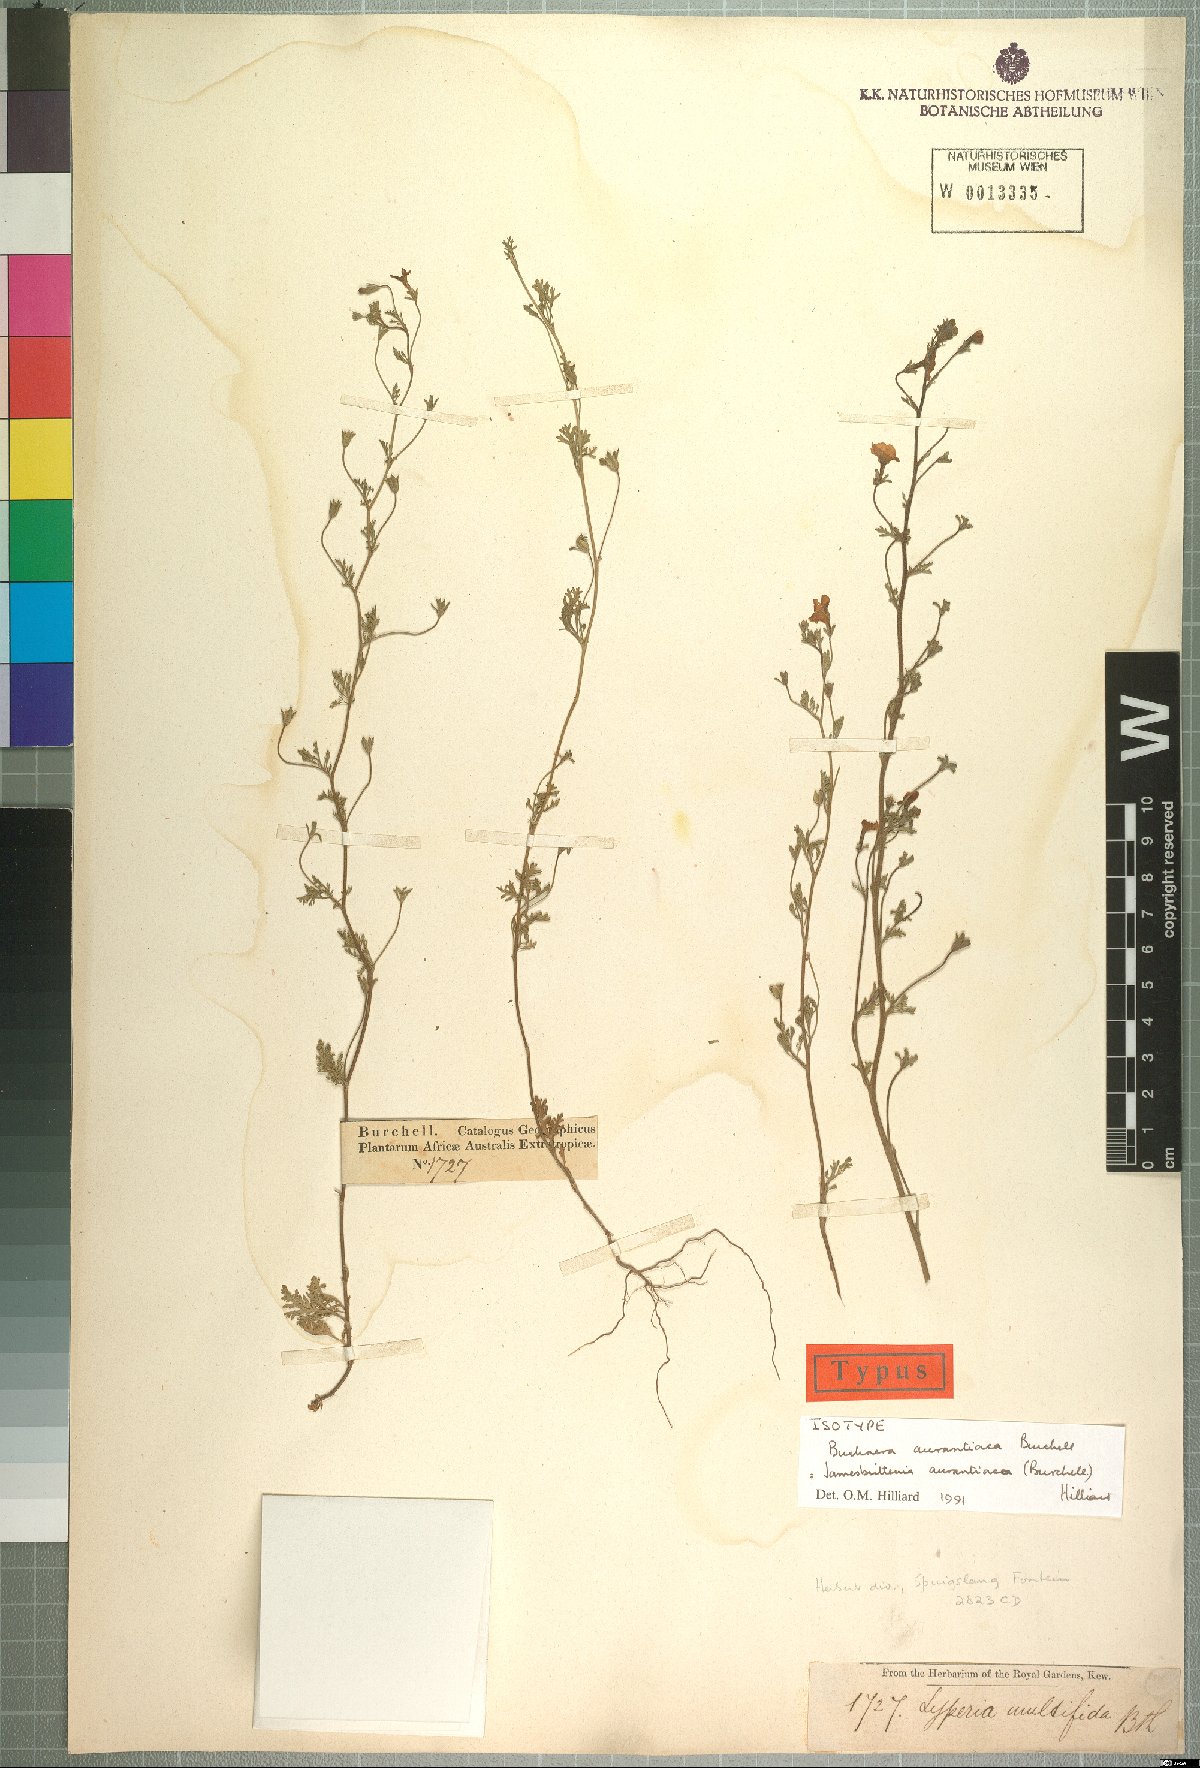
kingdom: Plantae
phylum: Tracheophyta
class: Magnoliopsida
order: Lamiales
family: Scrophulariaceae
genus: Jamesbrittenia
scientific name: Jamesbrittenia aurantiaca
